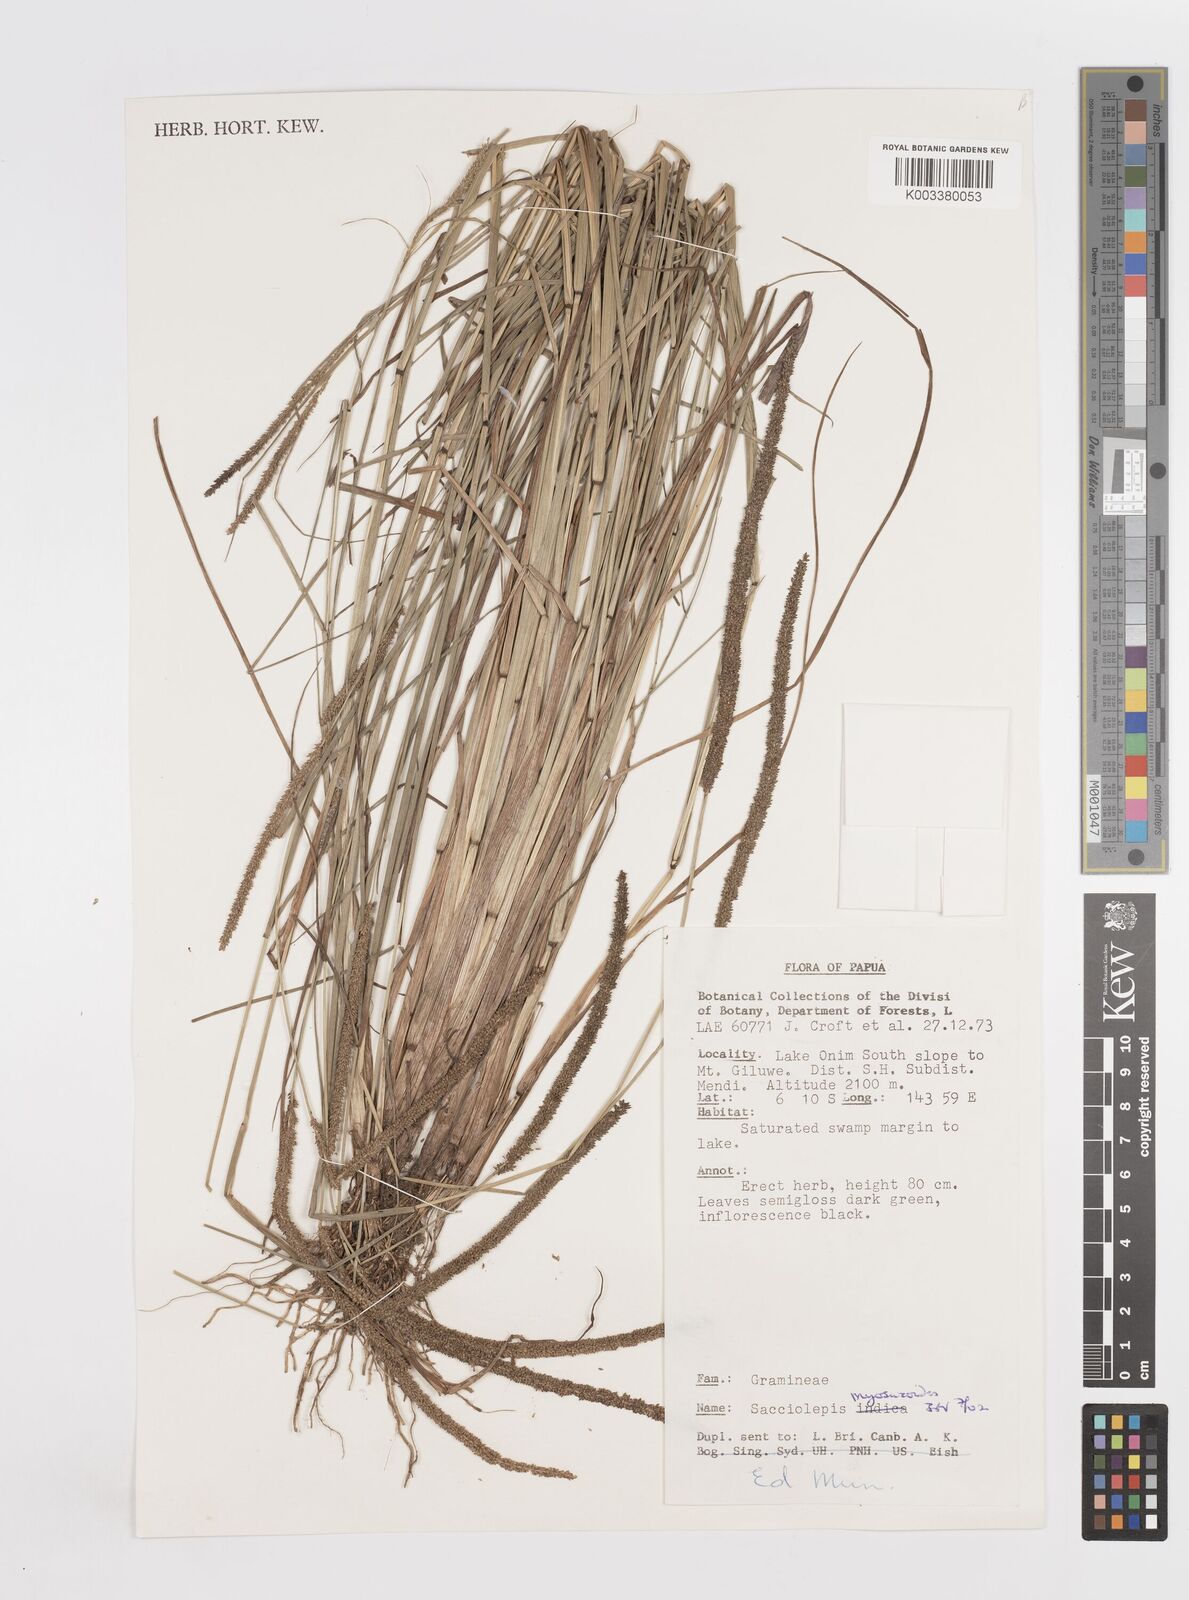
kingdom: Plantae
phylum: Tracheophyta
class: Liliopsida
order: Poales
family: Poaceae
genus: Sacciolepis
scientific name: Sacciolepis myosuroides
